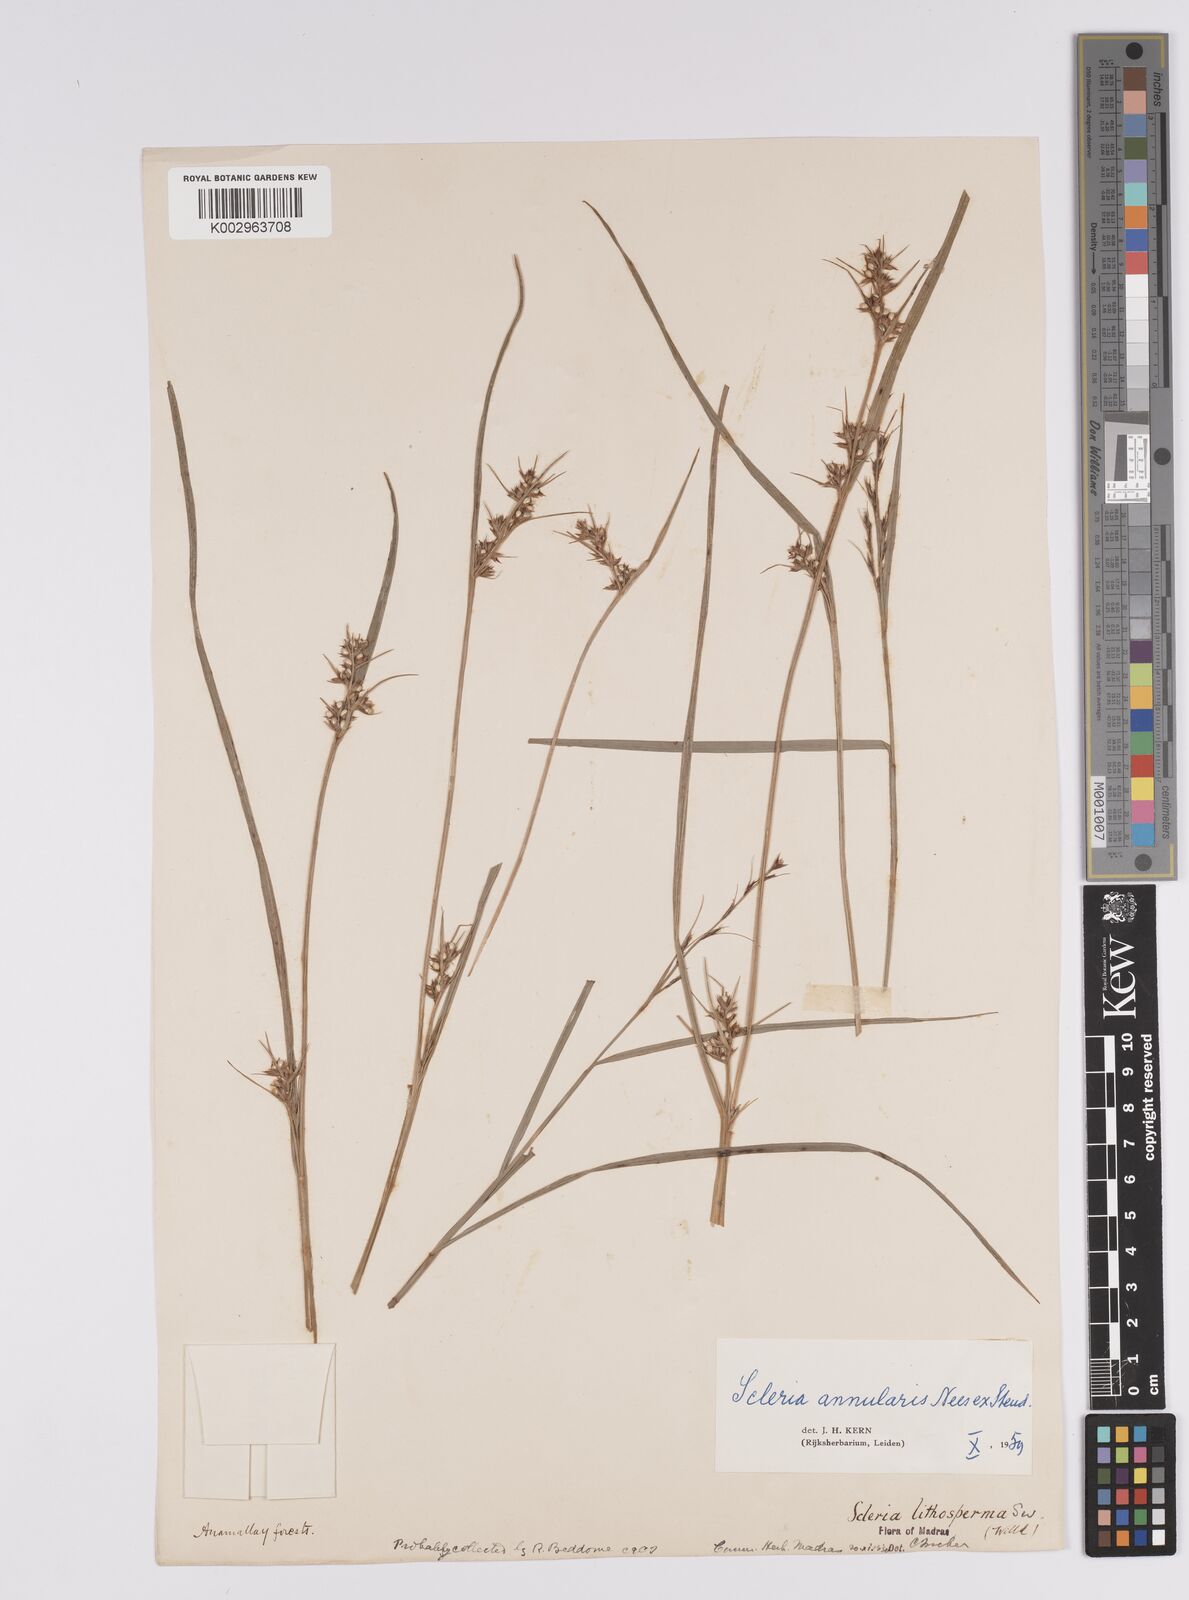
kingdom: Plantae
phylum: Tracheophyta
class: Liliopsida
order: Poales
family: Cyperaceae
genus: Scleria
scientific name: Scleria annularis
